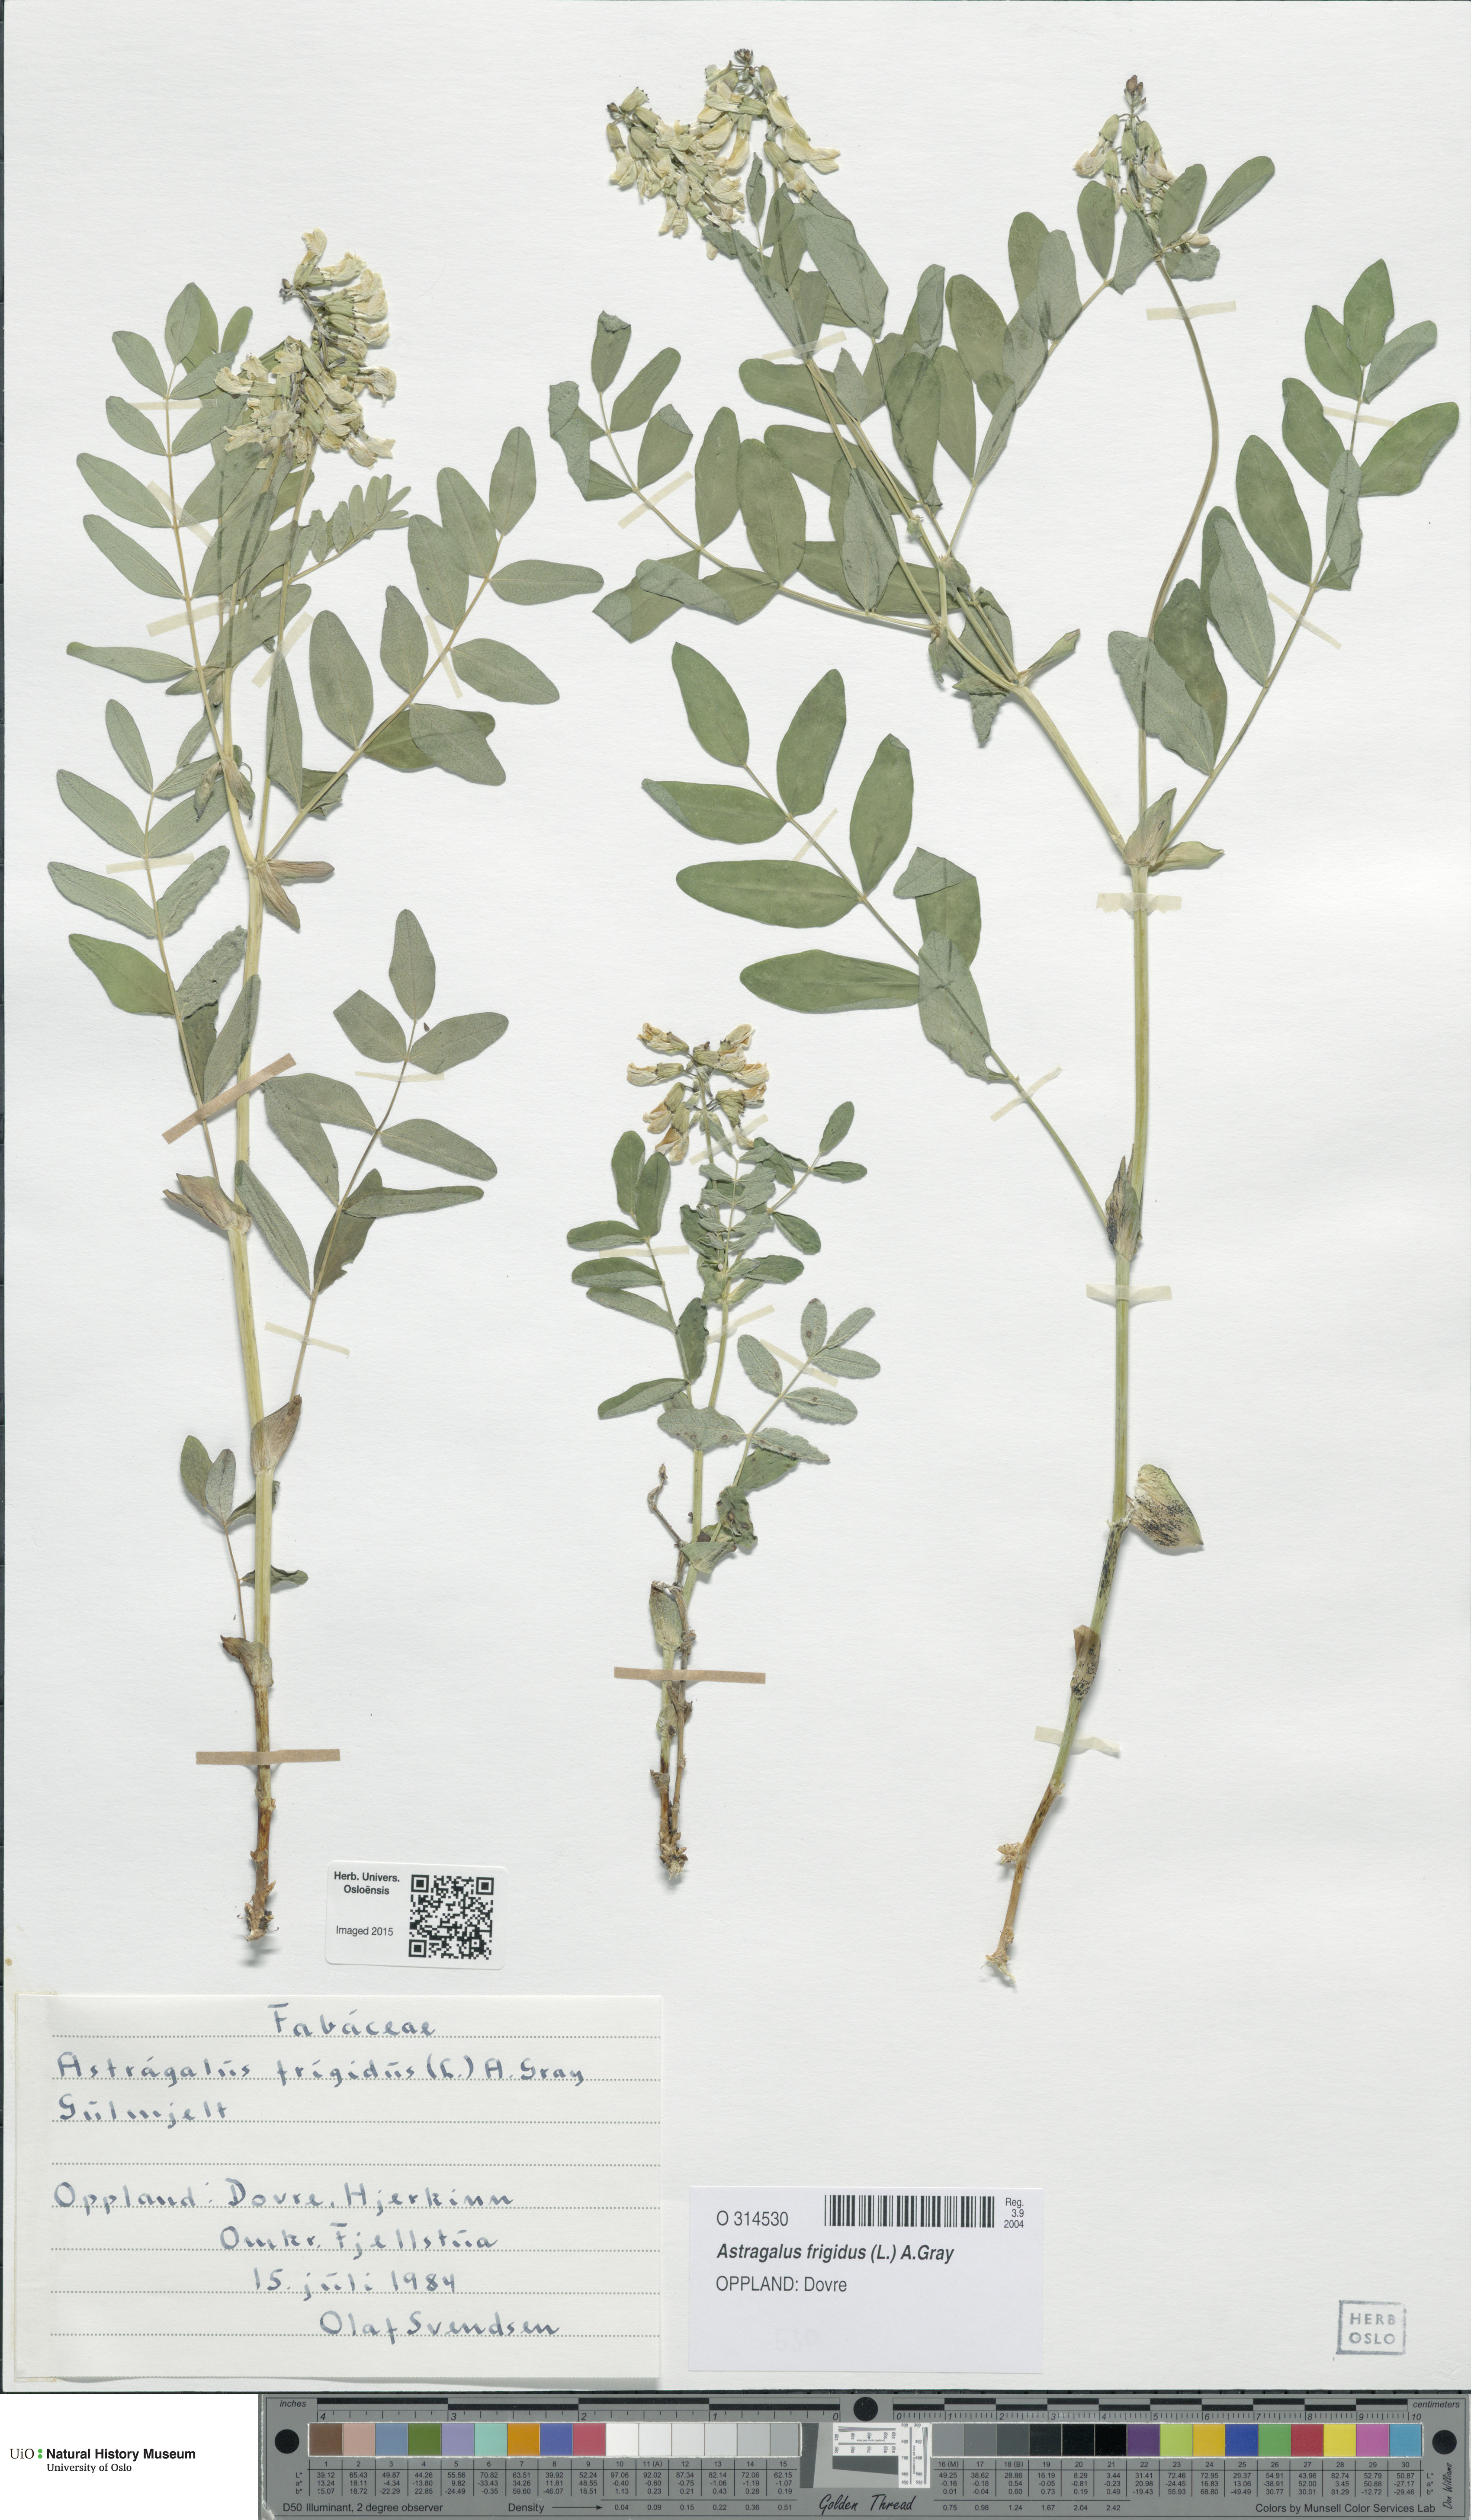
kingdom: Plantae
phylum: Tracheophyta
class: Magnoliopsida
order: Fabales
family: Fabaceae
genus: Astragalus
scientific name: Astragalus frigidus
